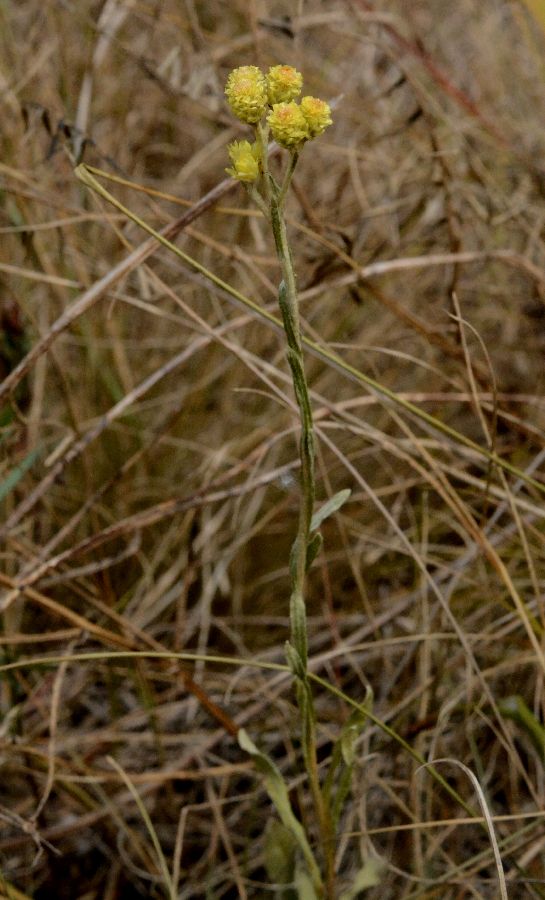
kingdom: Plantae
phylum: Tracheophyta
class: Magnoliopsida
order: Asterales
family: Asteraceae
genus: Helichrysum
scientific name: Helichrysum arenarium
